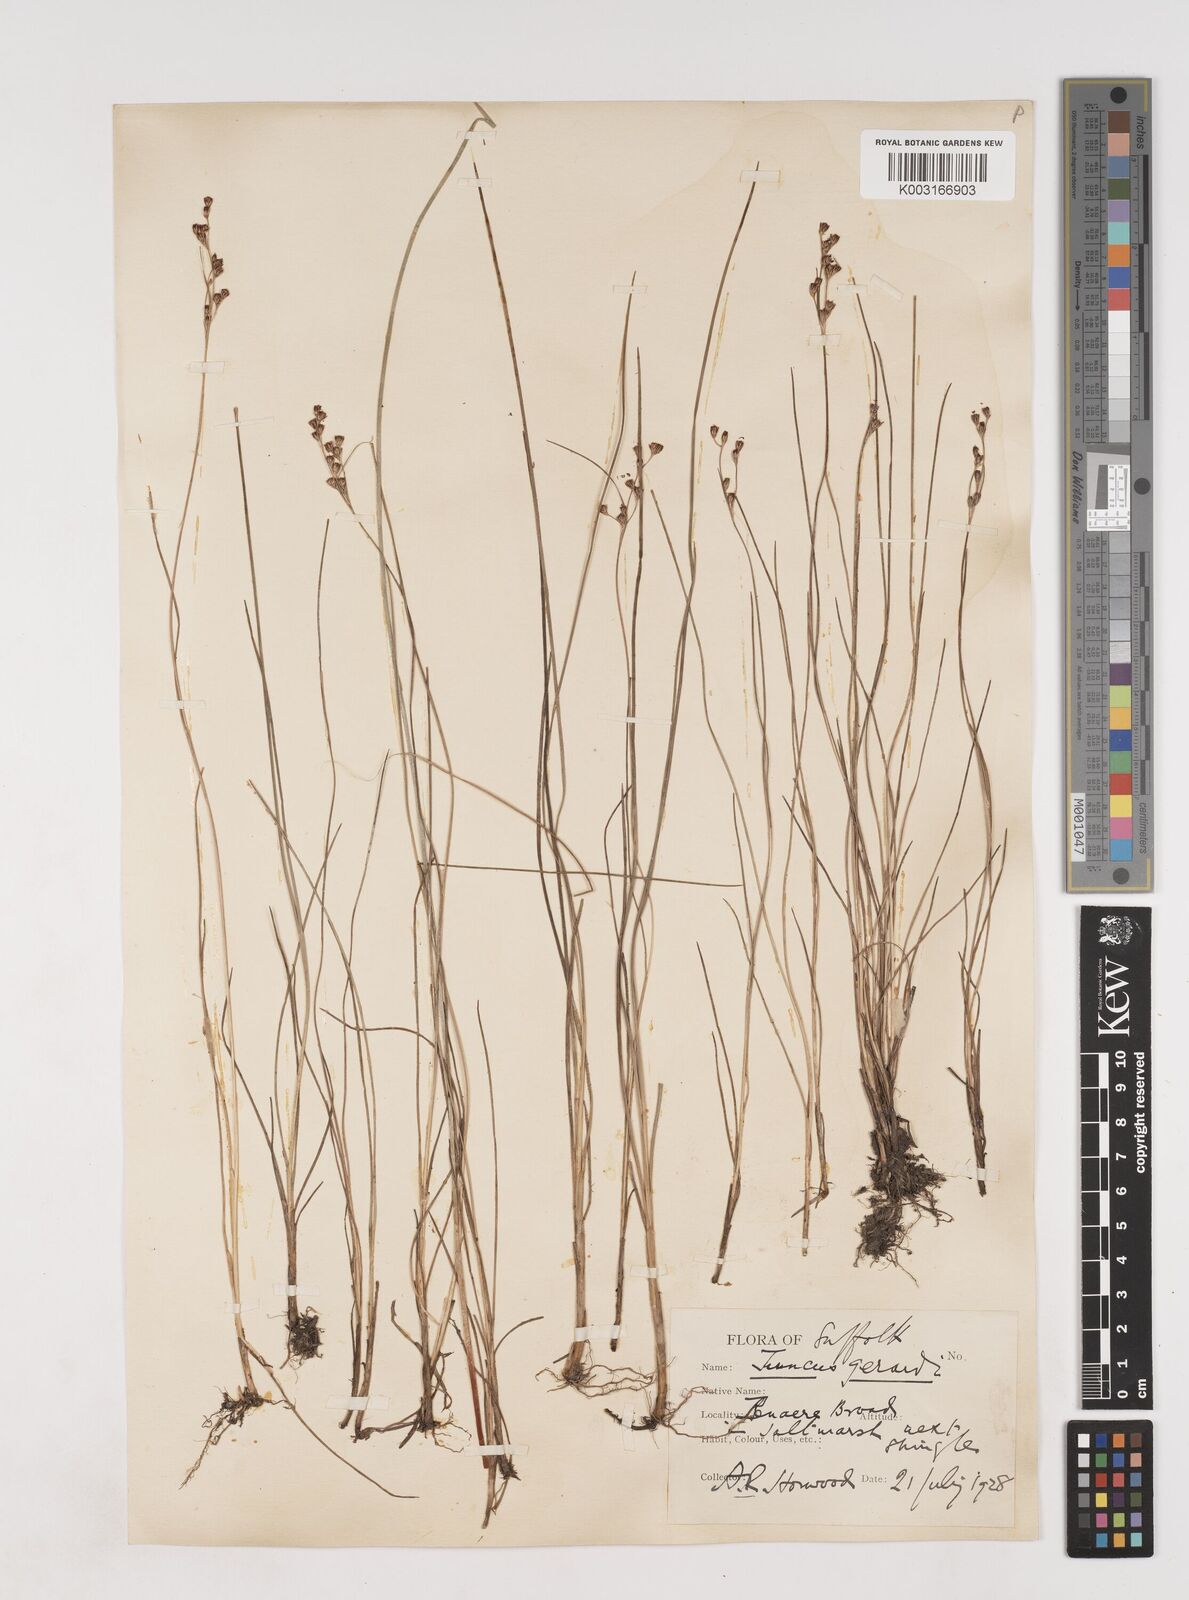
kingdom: Plantae
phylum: Tracheophyta
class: Liliopsida
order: Poales
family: Juncaceae
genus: Juncus
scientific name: Juncus gerardi
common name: Saltmarsh rush
